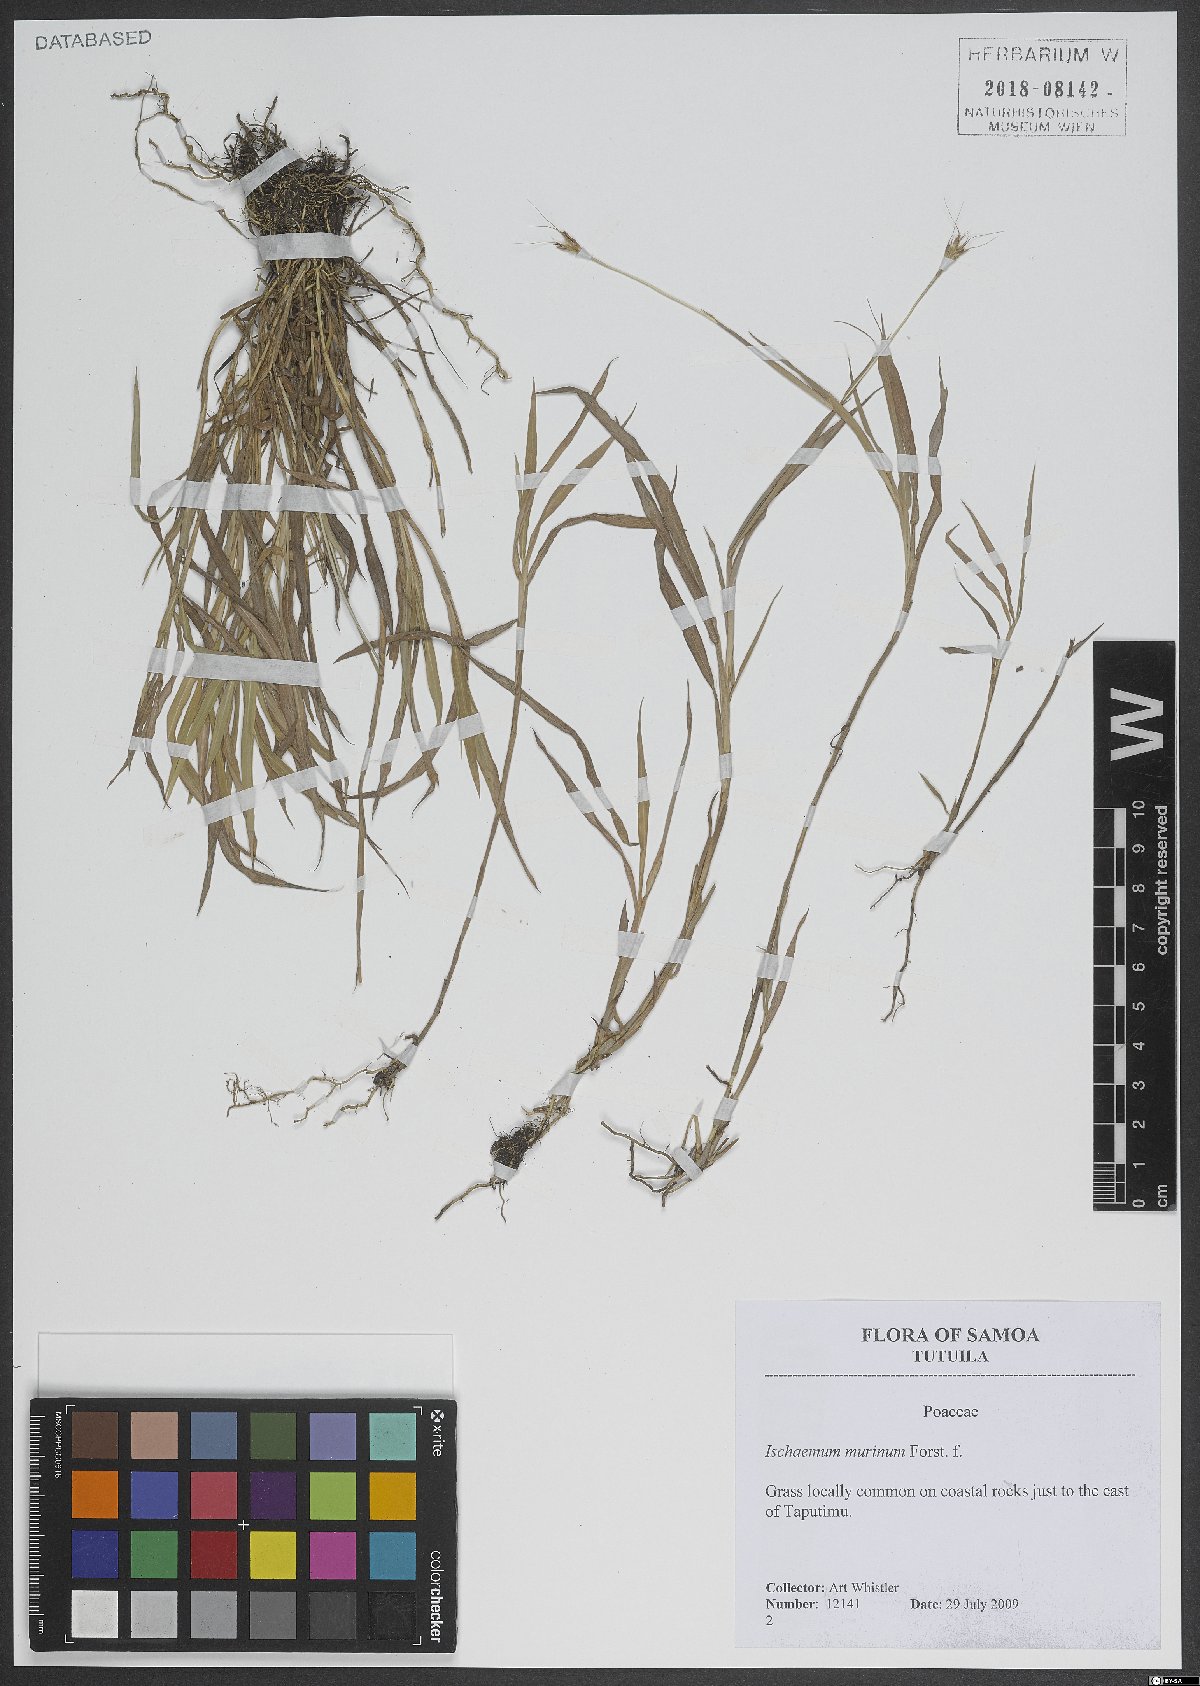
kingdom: Plantae
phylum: Tracheophyta
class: Liliopsida
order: Poales
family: Poaceae
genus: Ischaemum
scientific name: Ischaemum murinum
